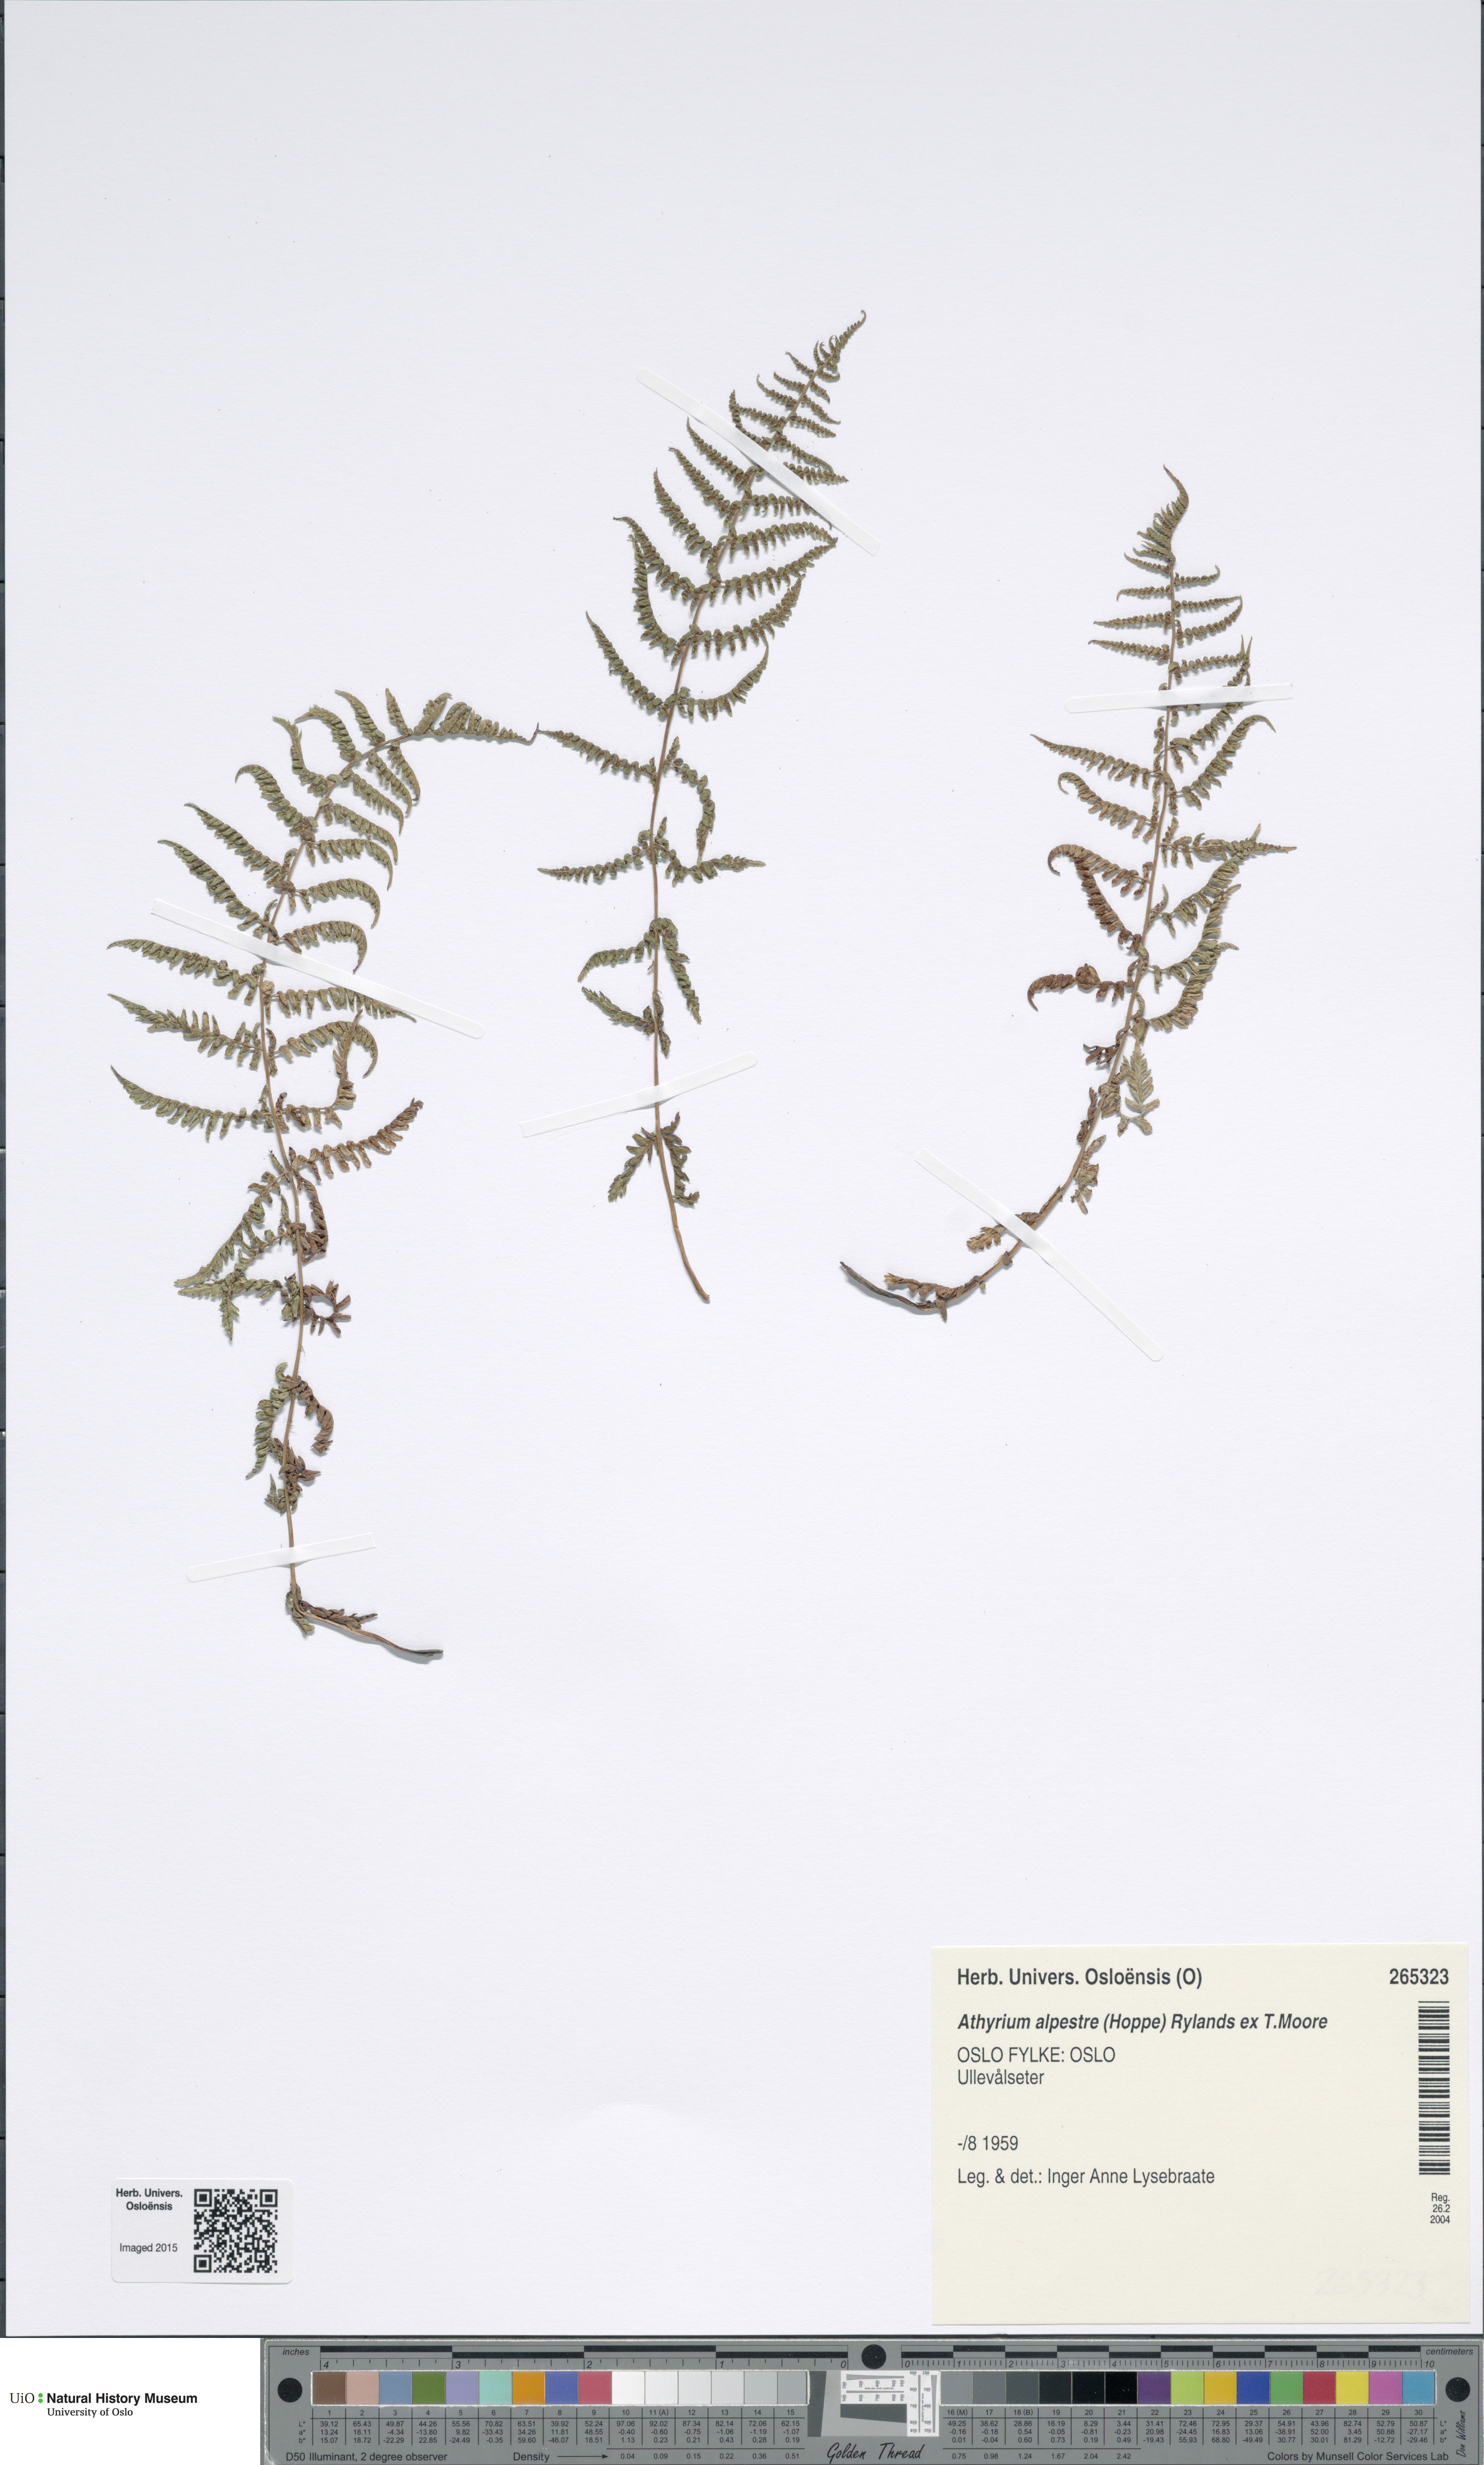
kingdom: Plantae
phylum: Tracheophyta
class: Polypodiopsida
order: Polypodiales
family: Athyriaceae
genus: Pseudathyrium
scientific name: Pseudathyrium alpestre
